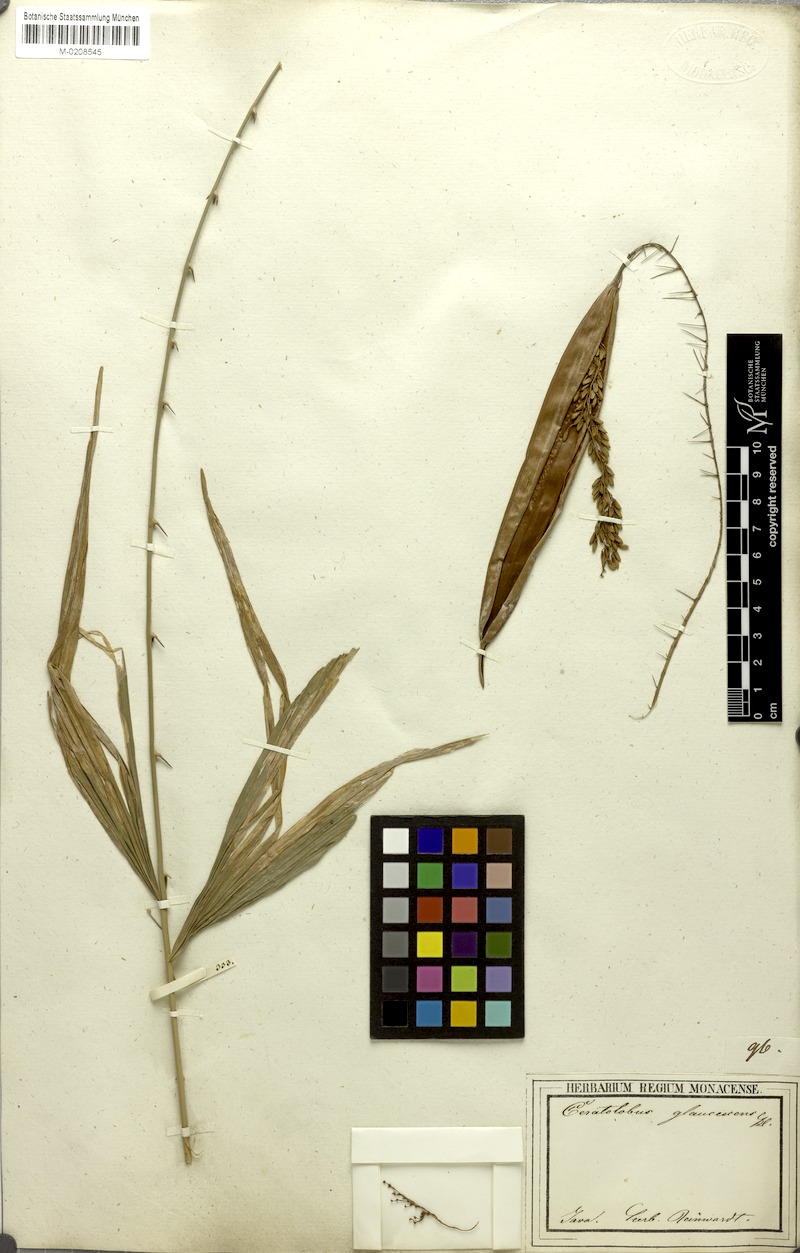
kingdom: Plantae
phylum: Tracheophyta
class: Liliopsida
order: Arecales
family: Arecaceae
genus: Calamus
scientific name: Calamus glaucescens
